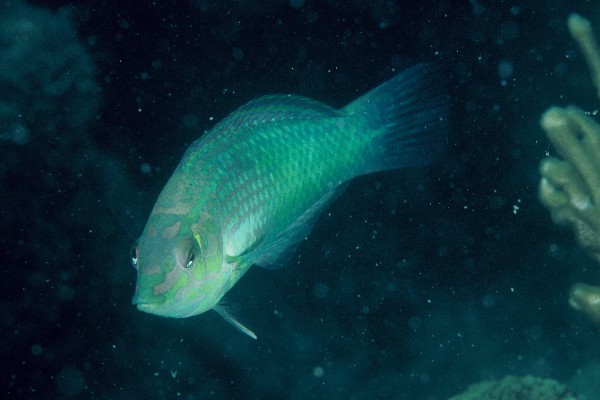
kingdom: Animalia
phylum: Chordata
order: Perciformes
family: Labridae
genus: Halichoeres
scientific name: Halichoeres chloropterus
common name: Pastel-green wrasse
